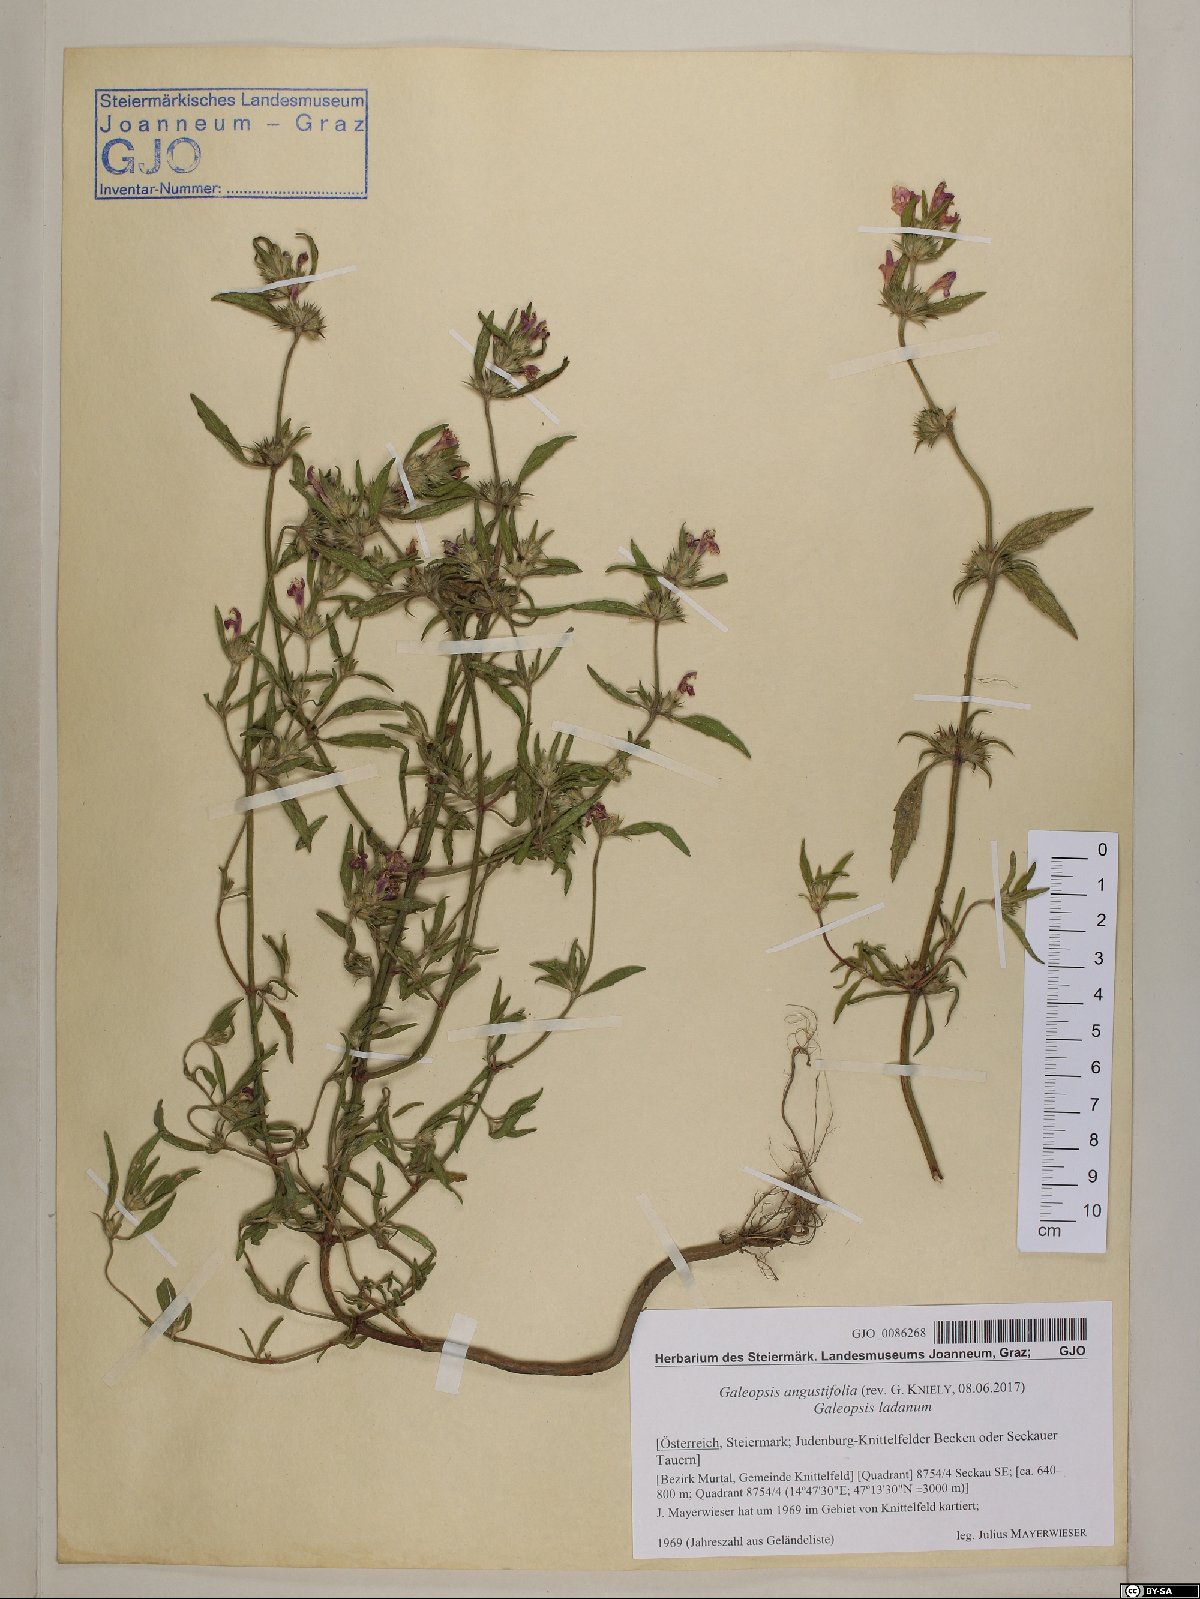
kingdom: Plantae
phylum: Tracheophyta
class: Magnoliopsida
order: Lamiales
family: Lamiaceae
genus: Galeopsis
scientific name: Galeopsis angustifolia
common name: Red hemp-nettle
